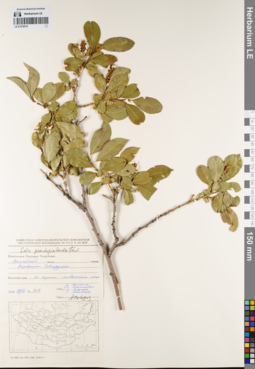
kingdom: Plantae
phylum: Tracheophyta
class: Magnoliopsida
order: Malpighiales
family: Salicaceae
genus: Salix
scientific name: Salix pseudopentandra
